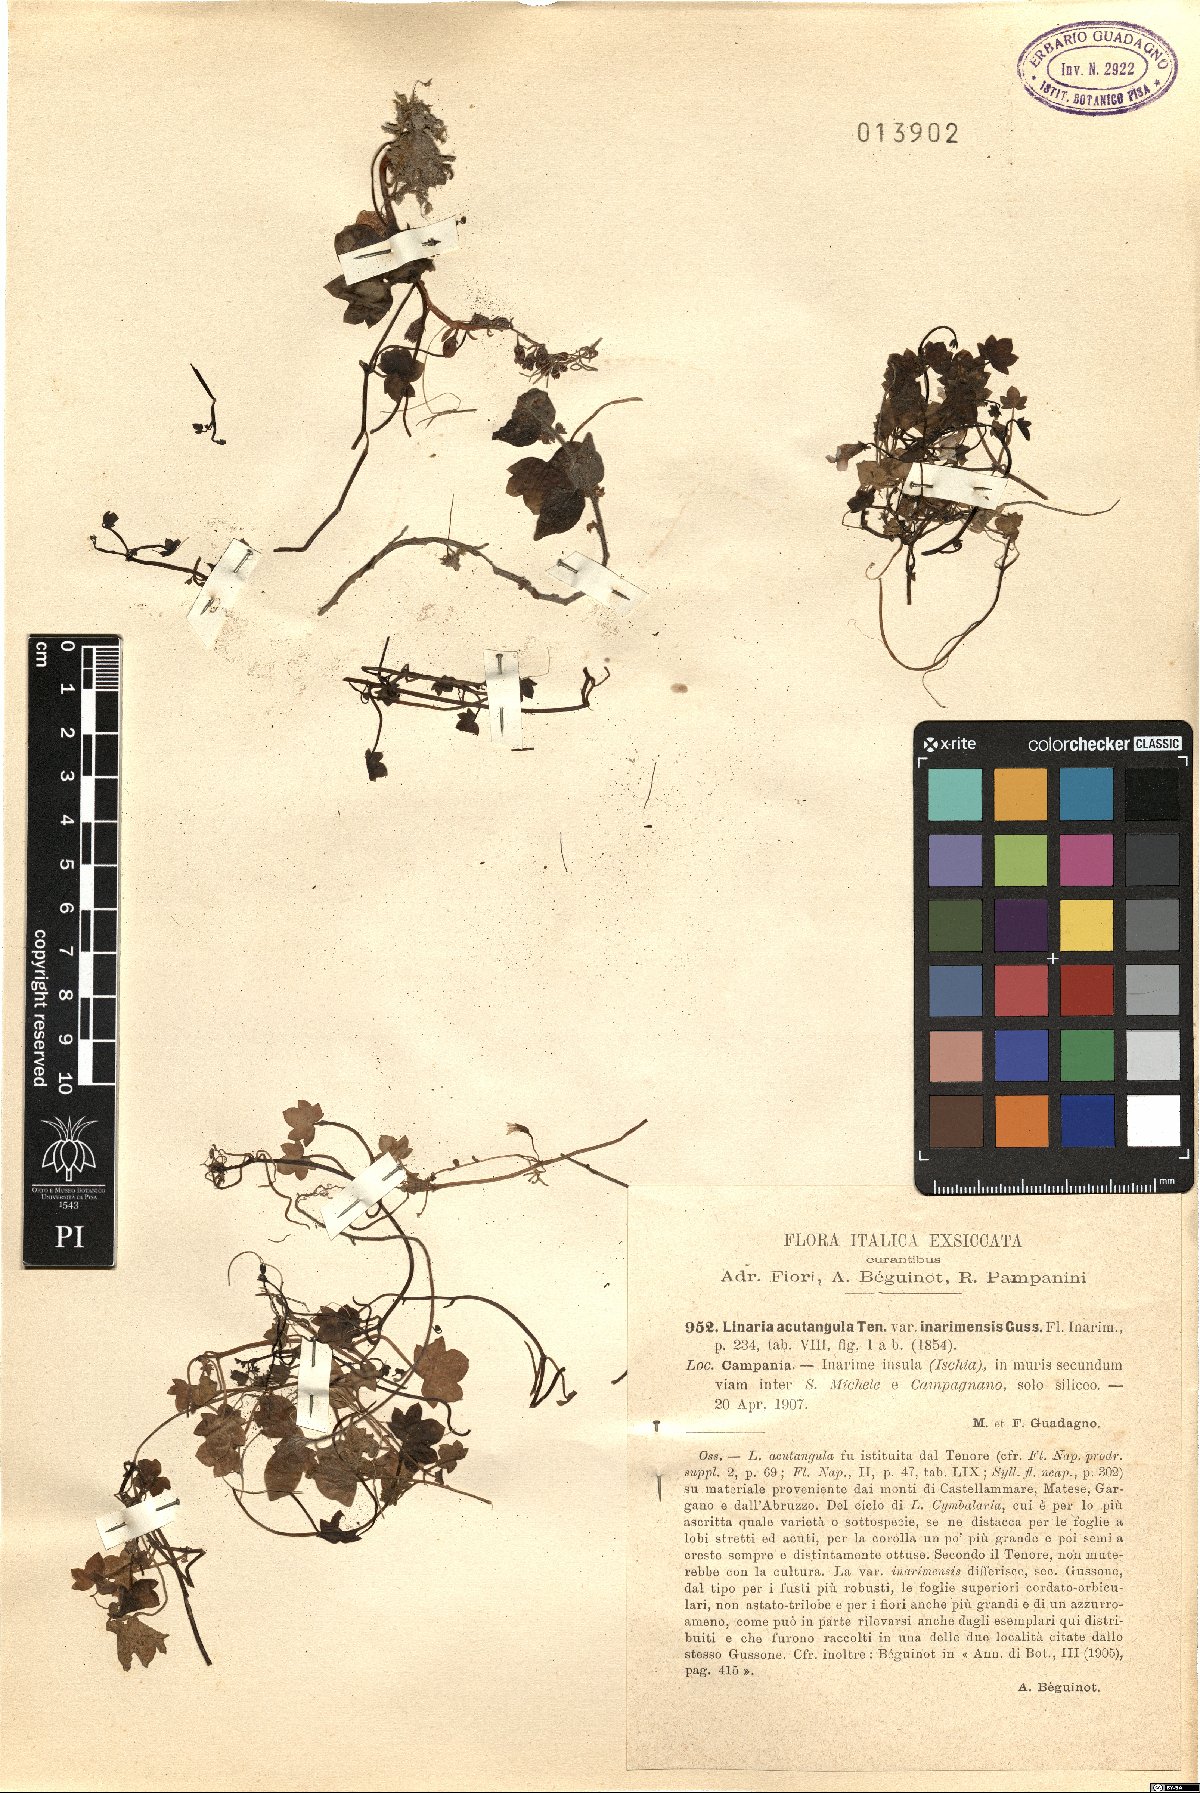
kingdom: Plantae
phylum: Tracheophyta
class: Magnoliopsida
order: Lamiales
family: Plantaginaceae
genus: Cymbalaria
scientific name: Cymbalaria muralis
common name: Ivy-leaved toadflax
